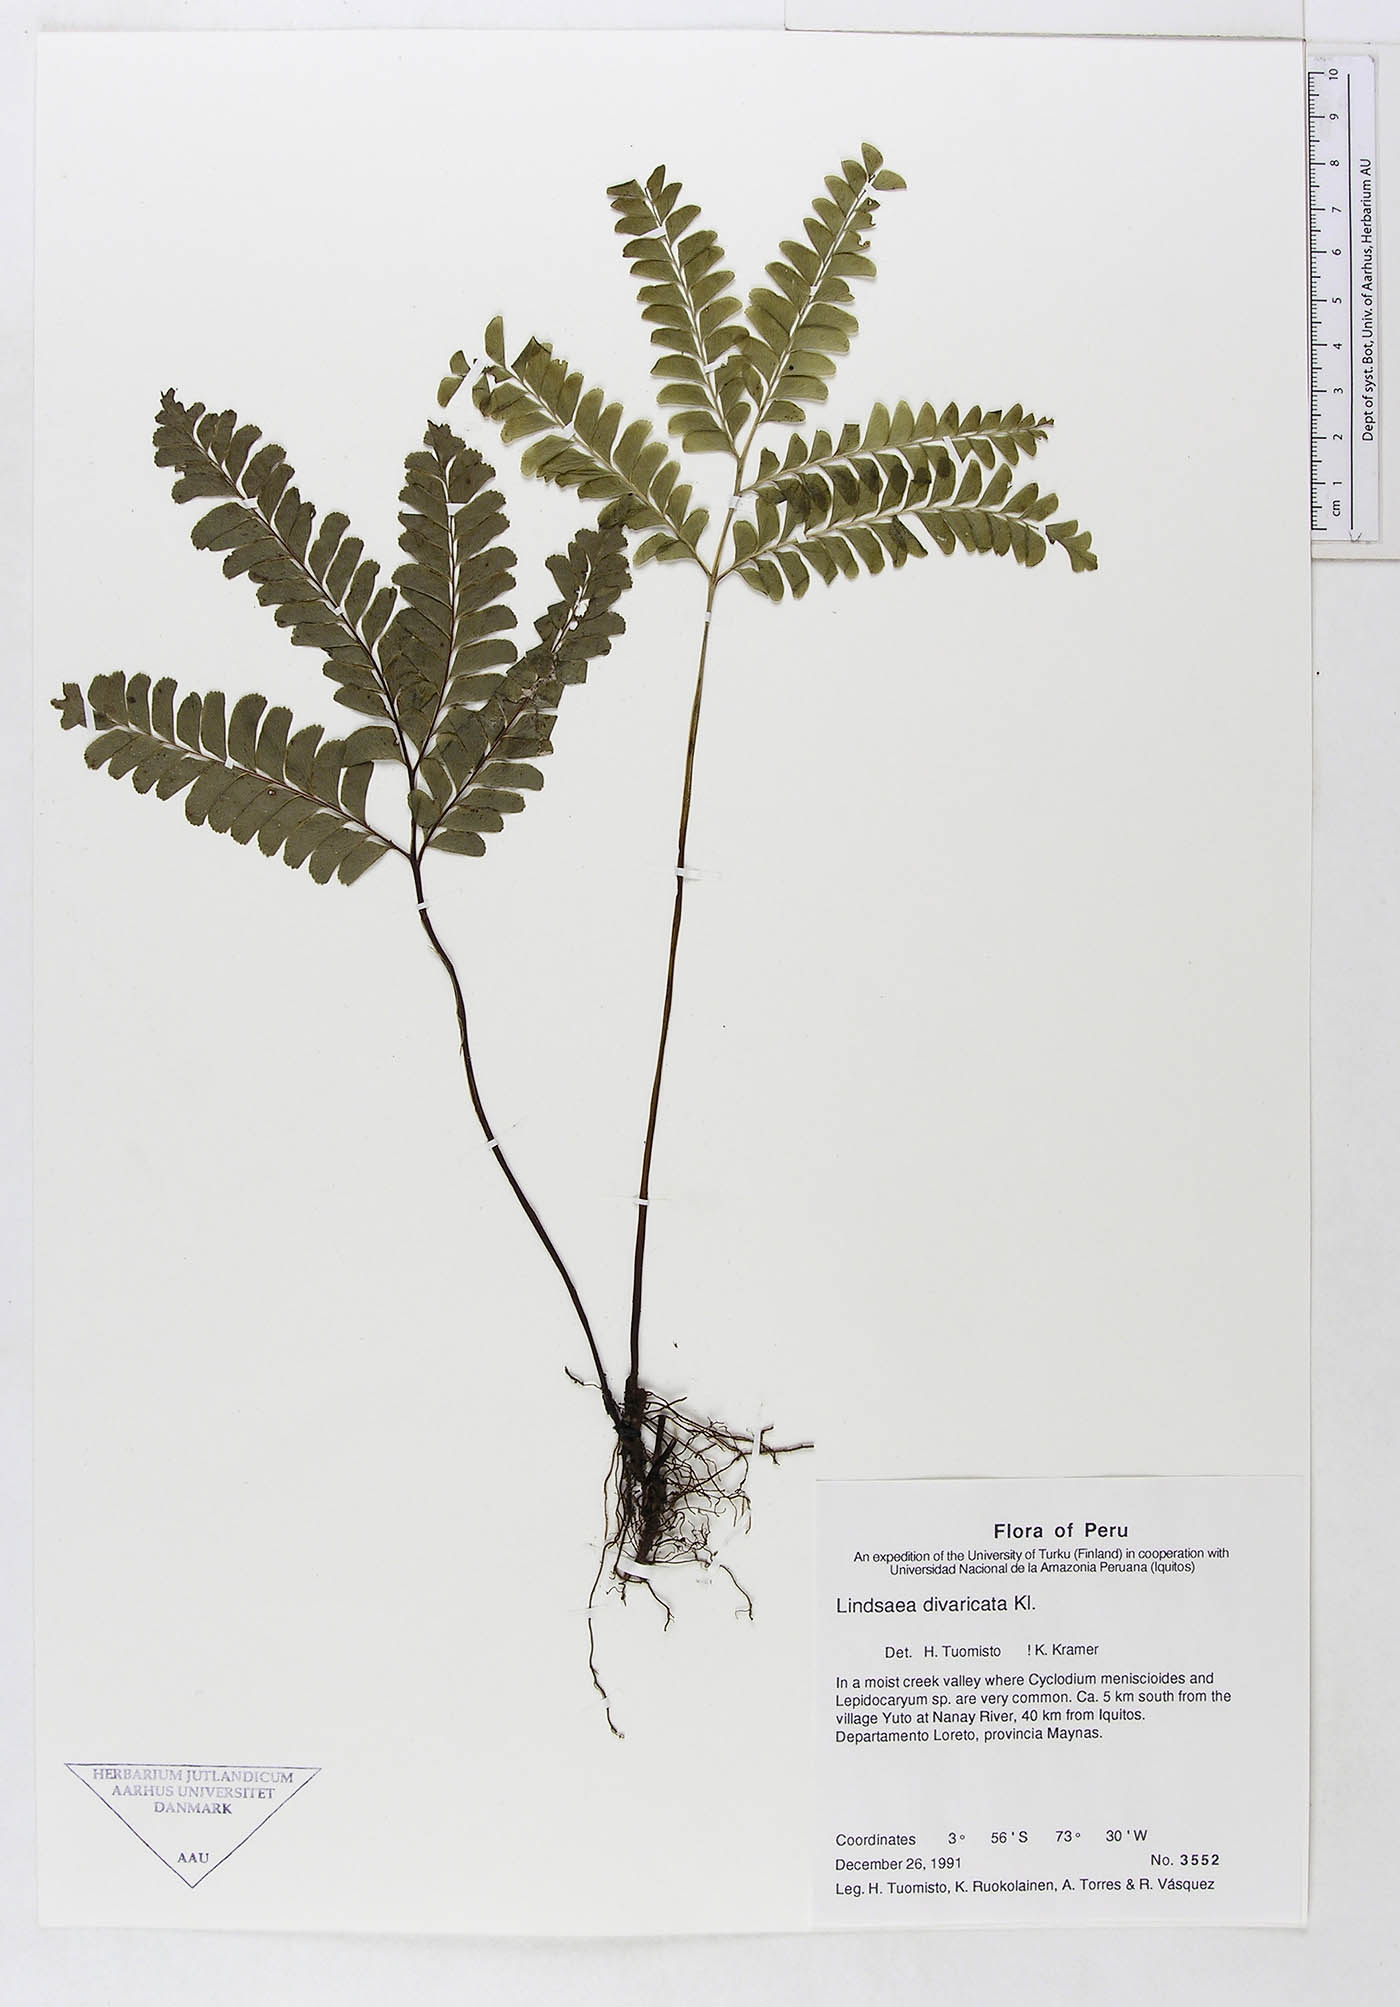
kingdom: Plantae
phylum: Tracheophyta
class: Polypodiopsida
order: Polypodiales
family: Lindsaeaceae
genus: Lindsaea
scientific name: Lindsaea divaricata
